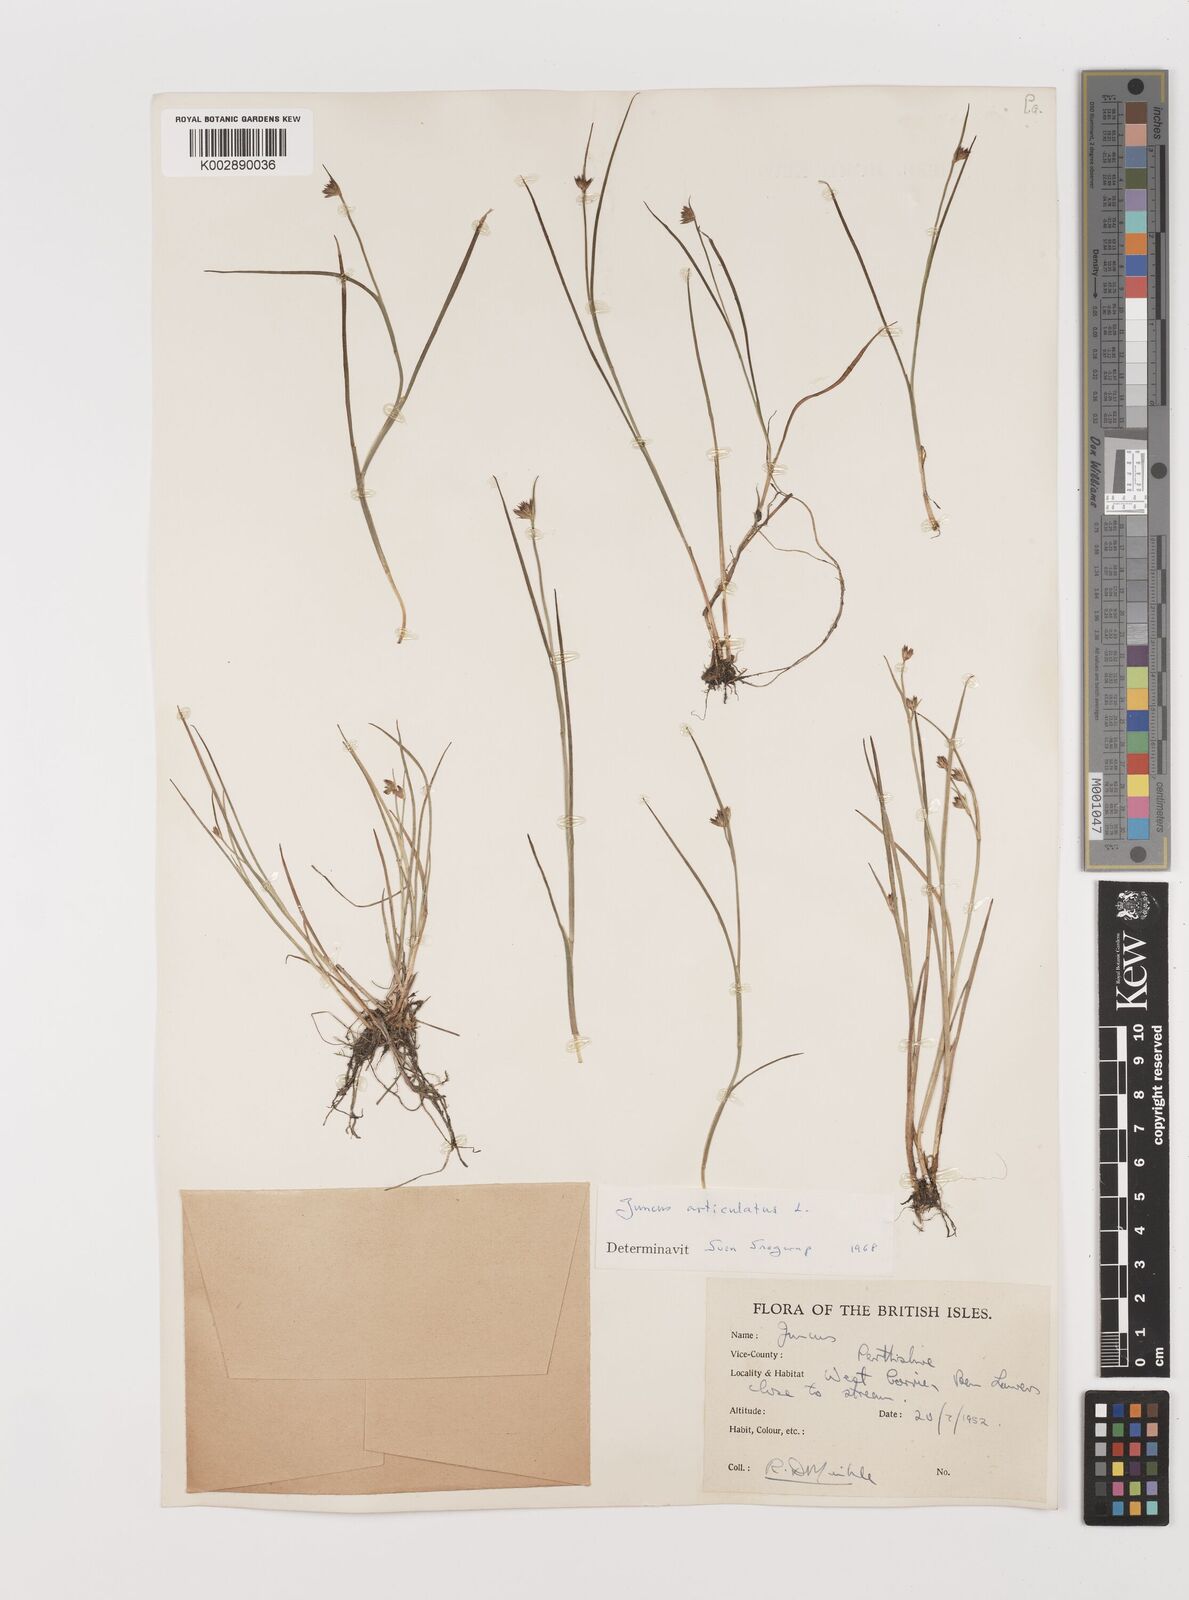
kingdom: Plantae
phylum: Tracheophyta
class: Liliopsida
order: Poales
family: Juncaceae
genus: Juncus
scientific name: Juncus articulatus
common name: Jointed rush
